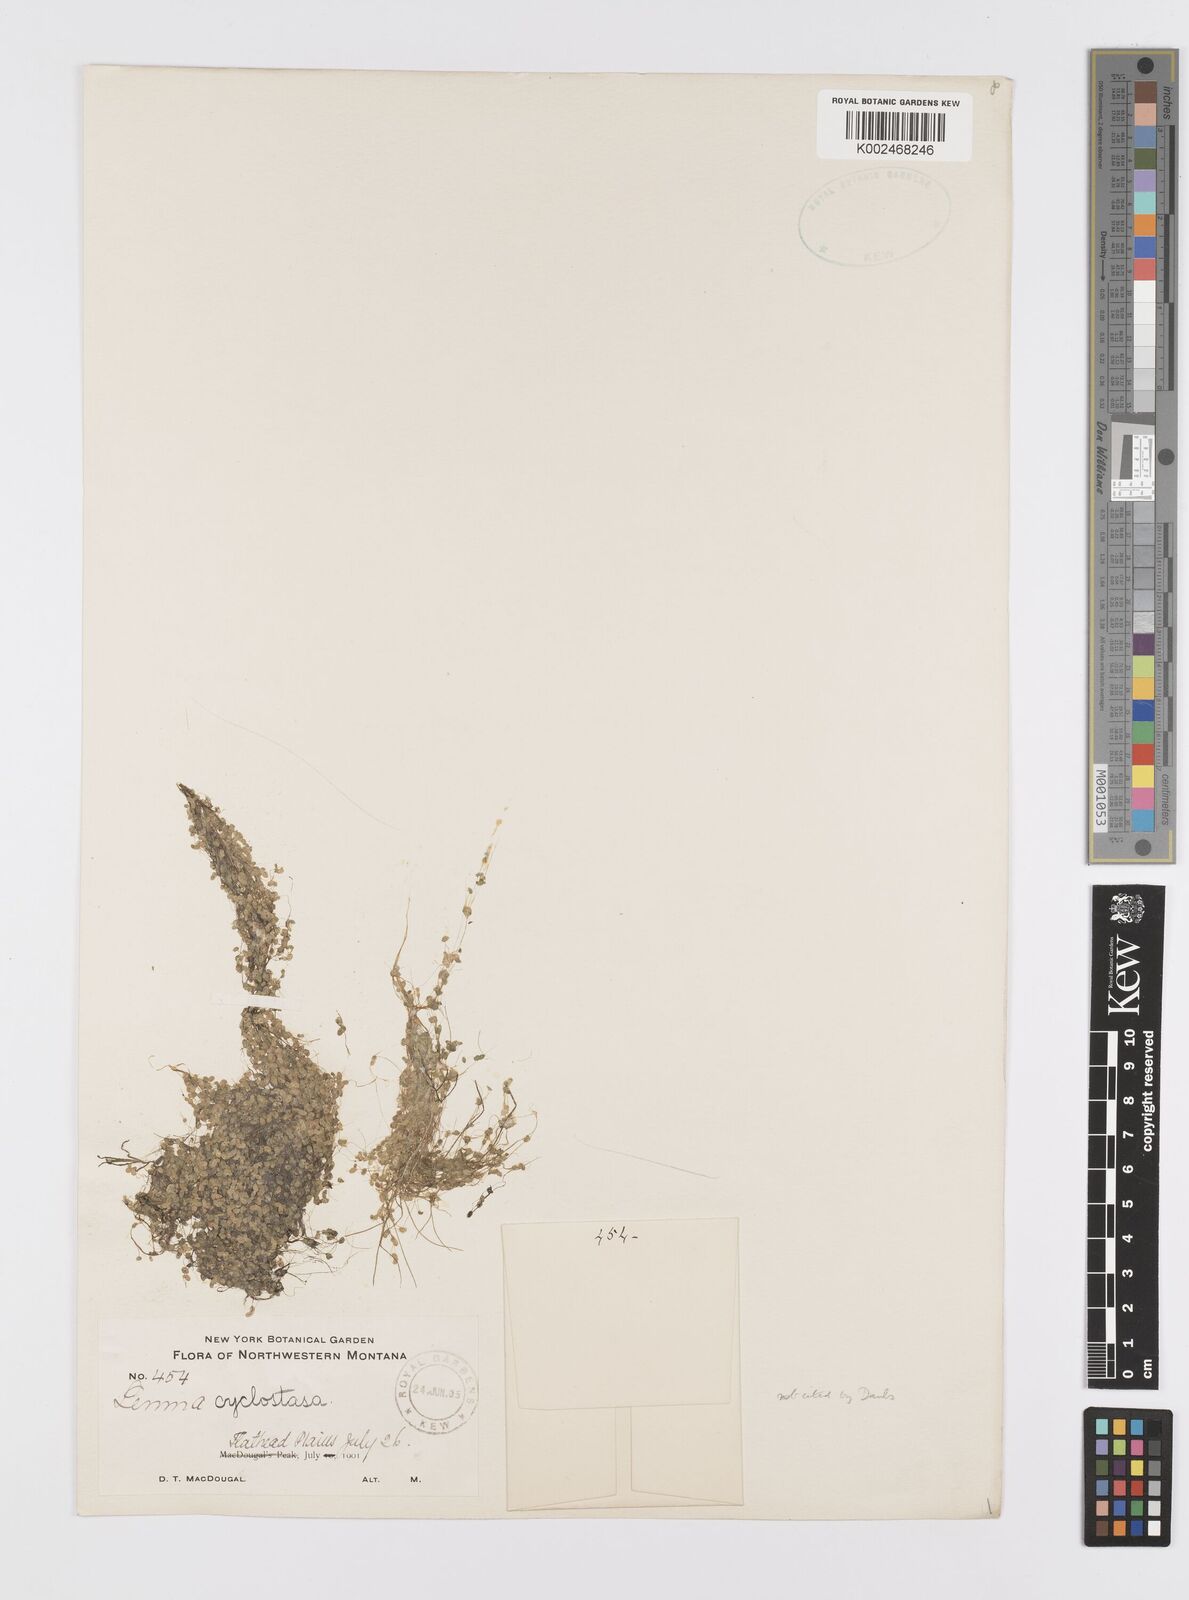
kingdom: Plantae
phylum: Tracheophyta
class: Liliopsida
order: Alismatales
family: Araceae
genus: Lemna
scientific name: Lemna valdiviana
